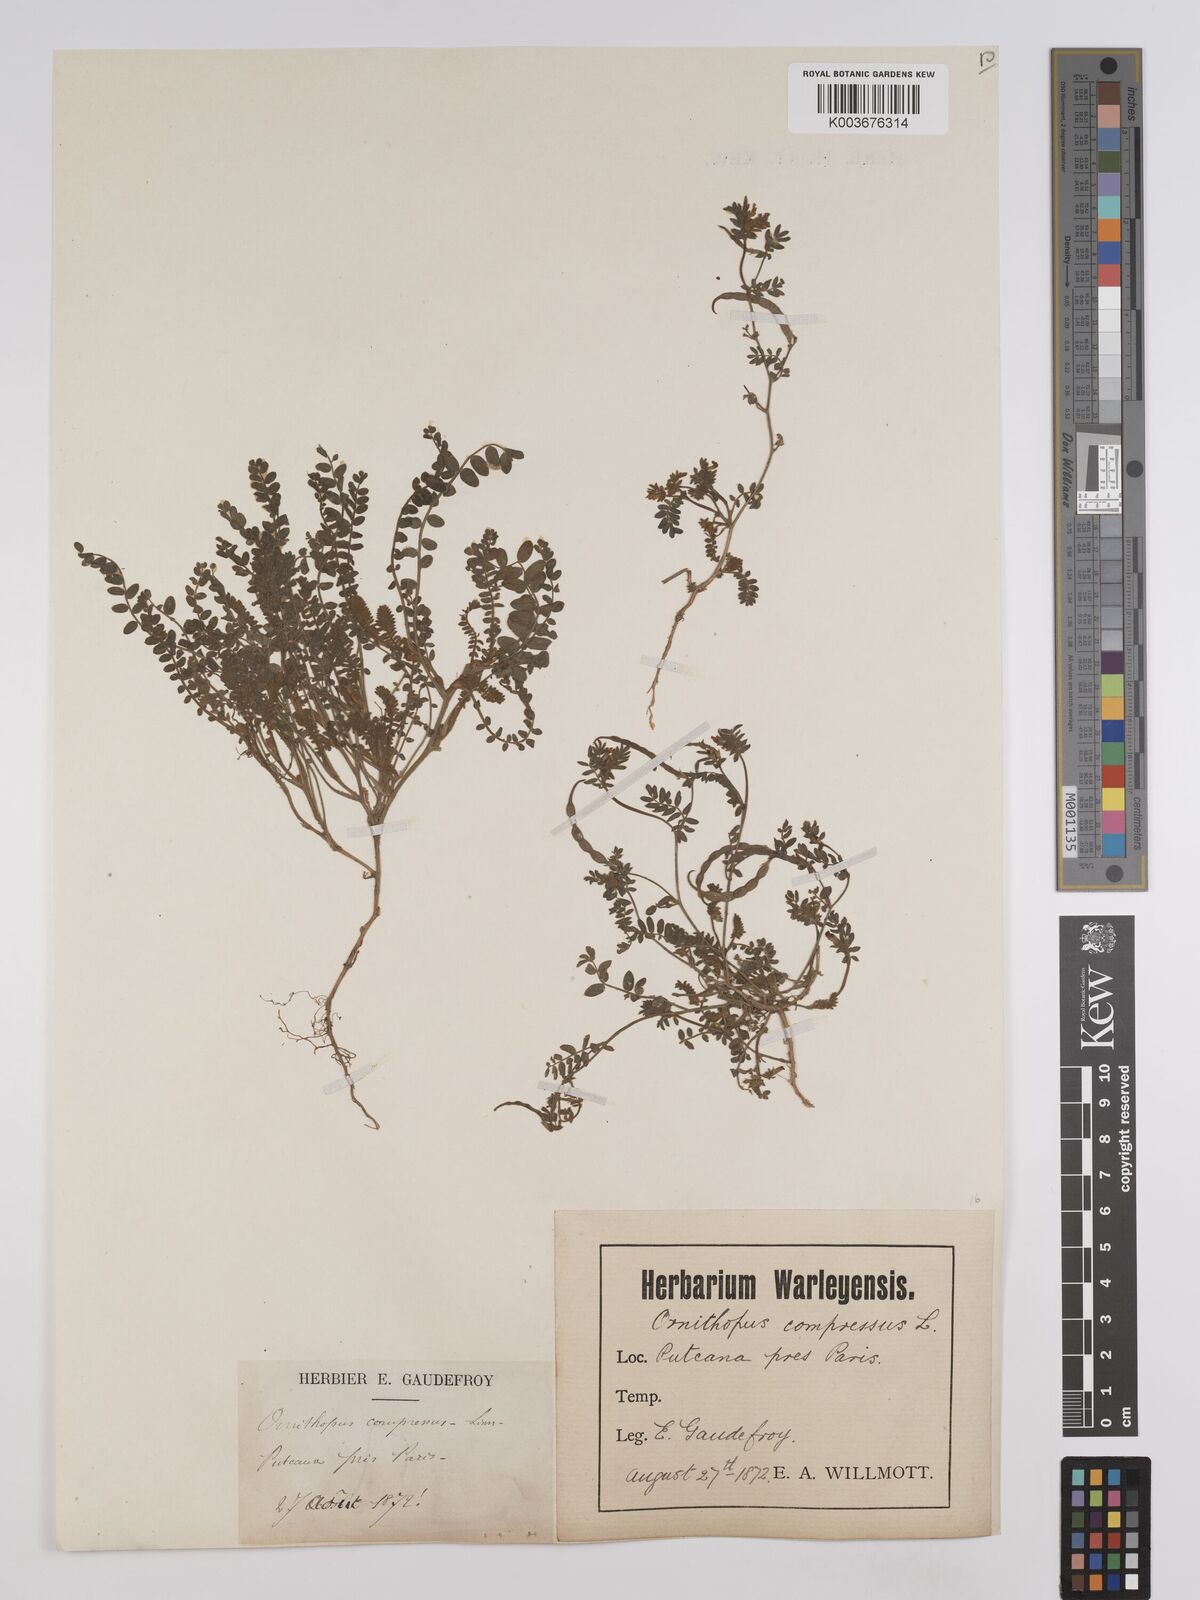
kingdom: Plantae
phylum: Tracheophyta
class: Magnoliopsida
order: Fabales
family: Fabaceae
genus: Ornithopus
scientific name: Ornithopus compressus
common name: Yellow serradella
